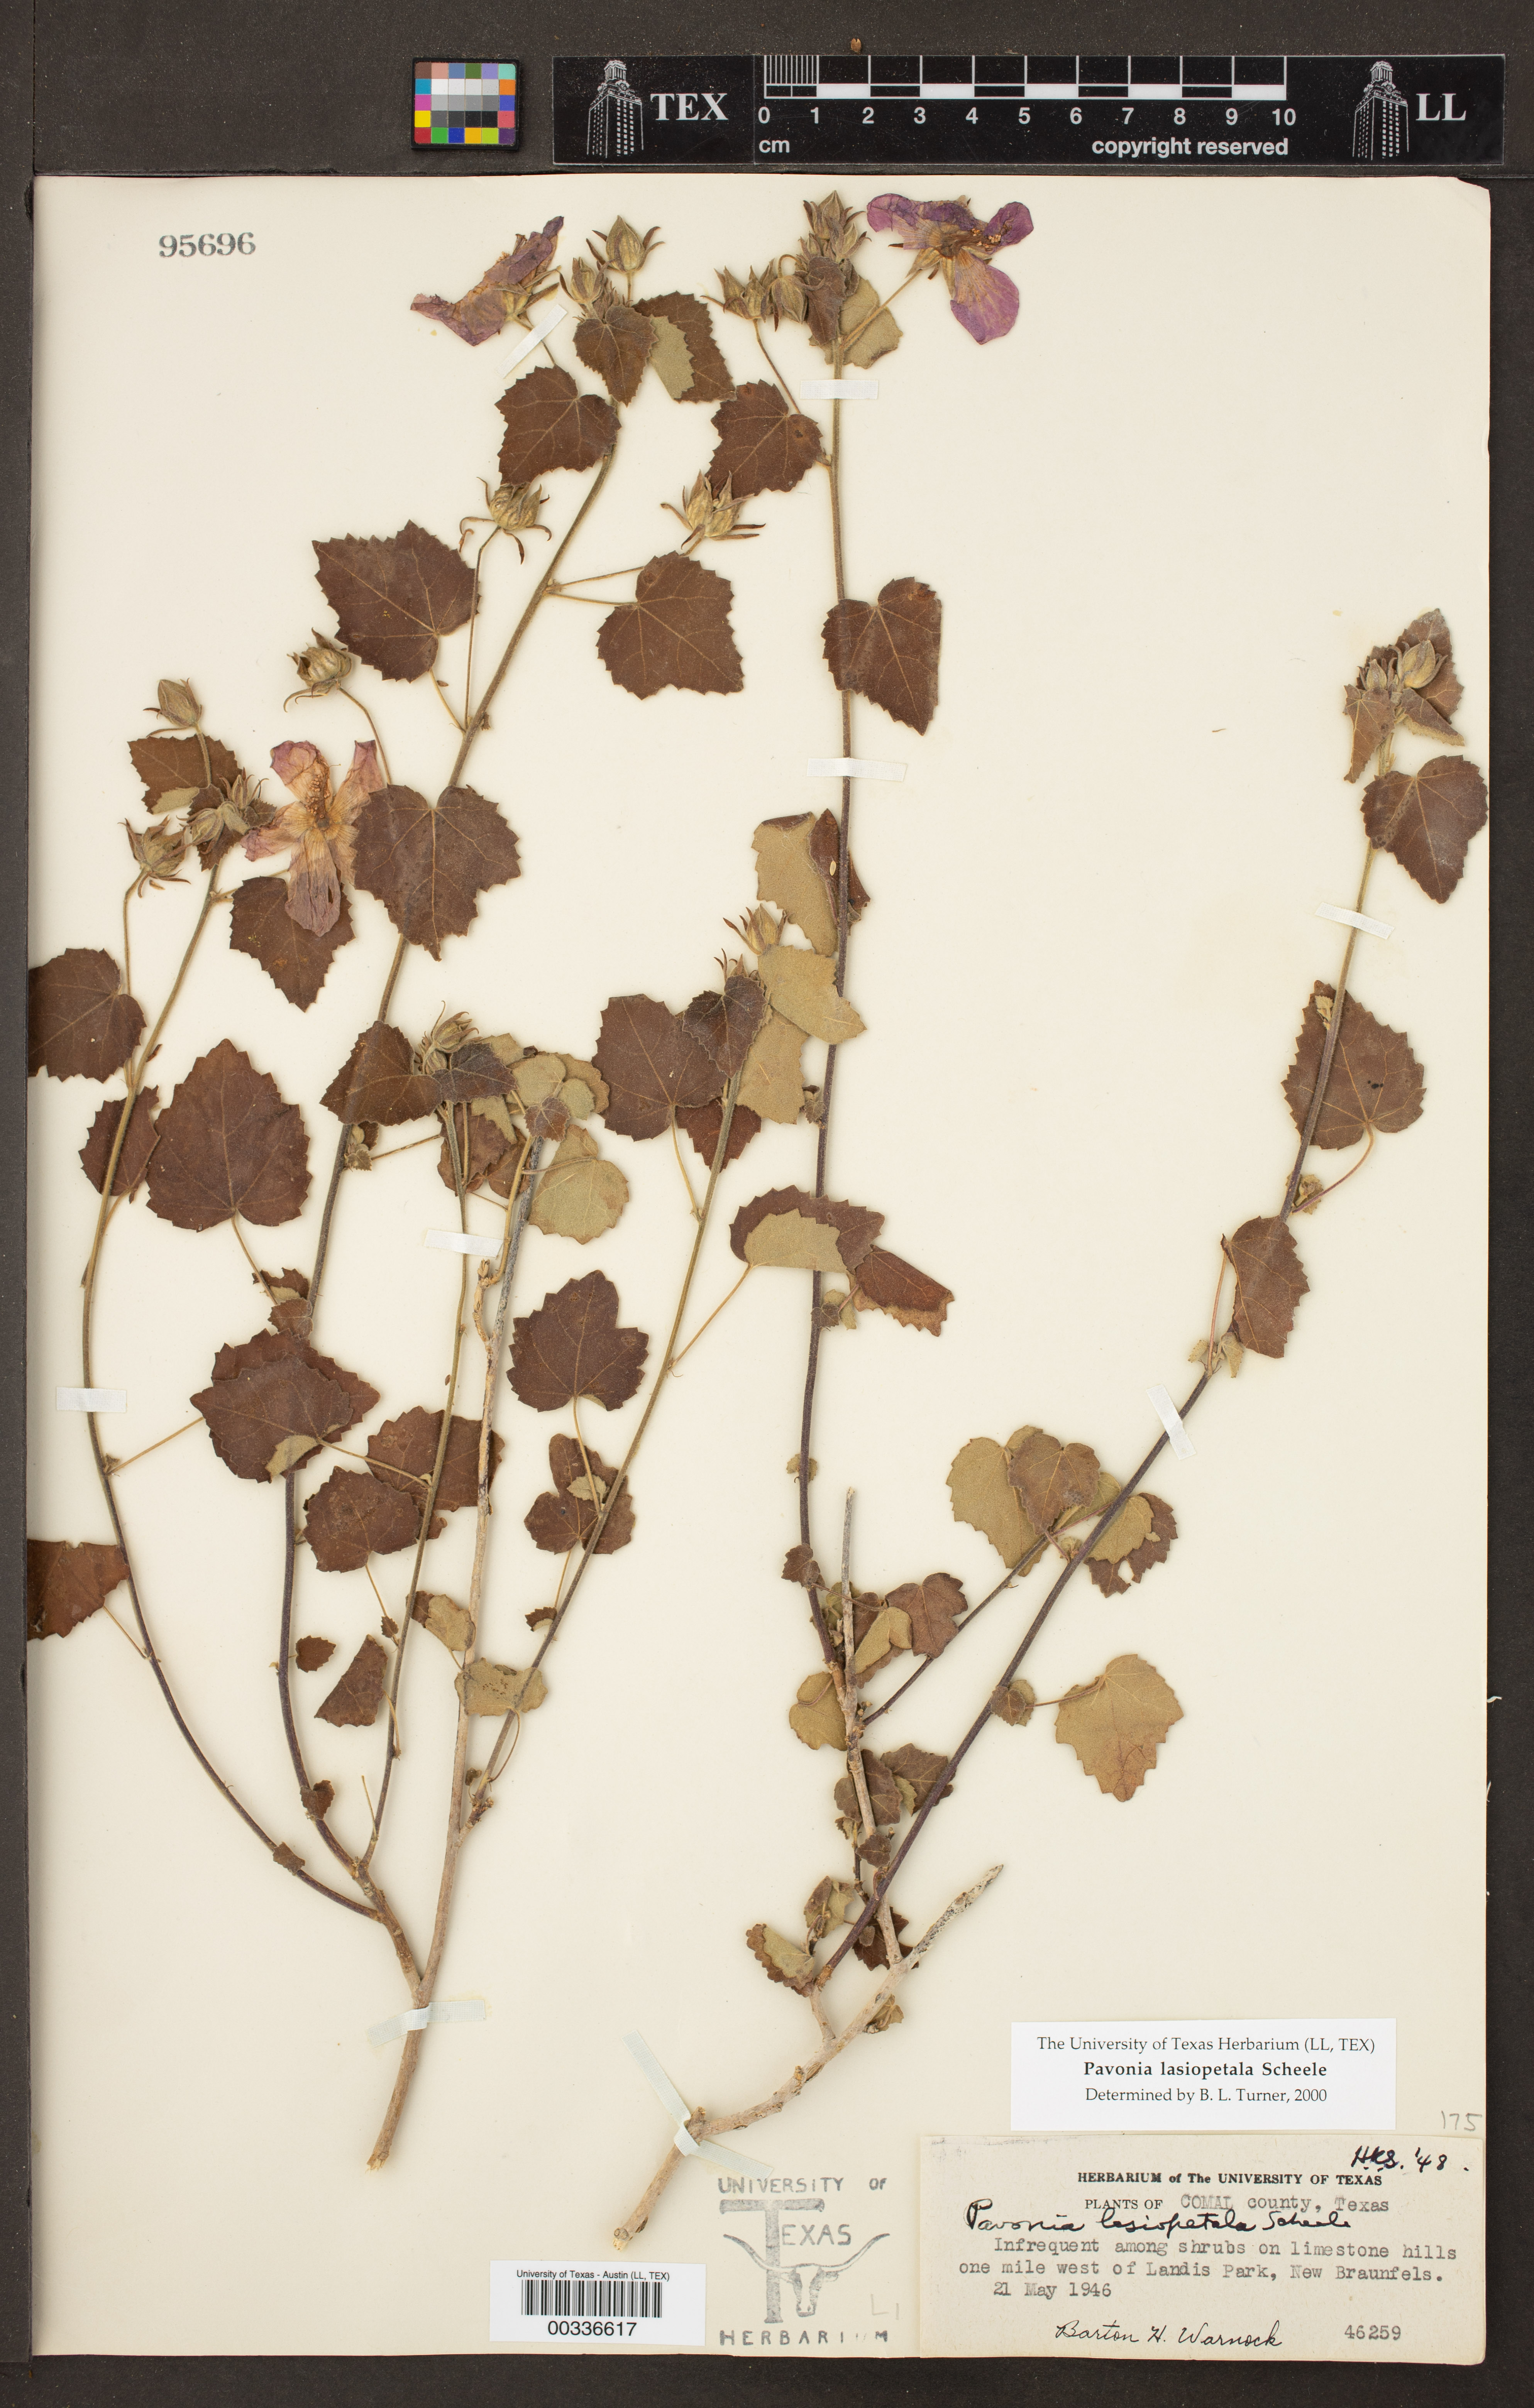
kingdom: Plantae
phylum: Tracheophyta
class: Magnoliopsida
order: Malvales
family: Malvaceae
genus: Pavonia
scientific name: Pavonia lasiopetala
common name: Texas swamp-mallow
